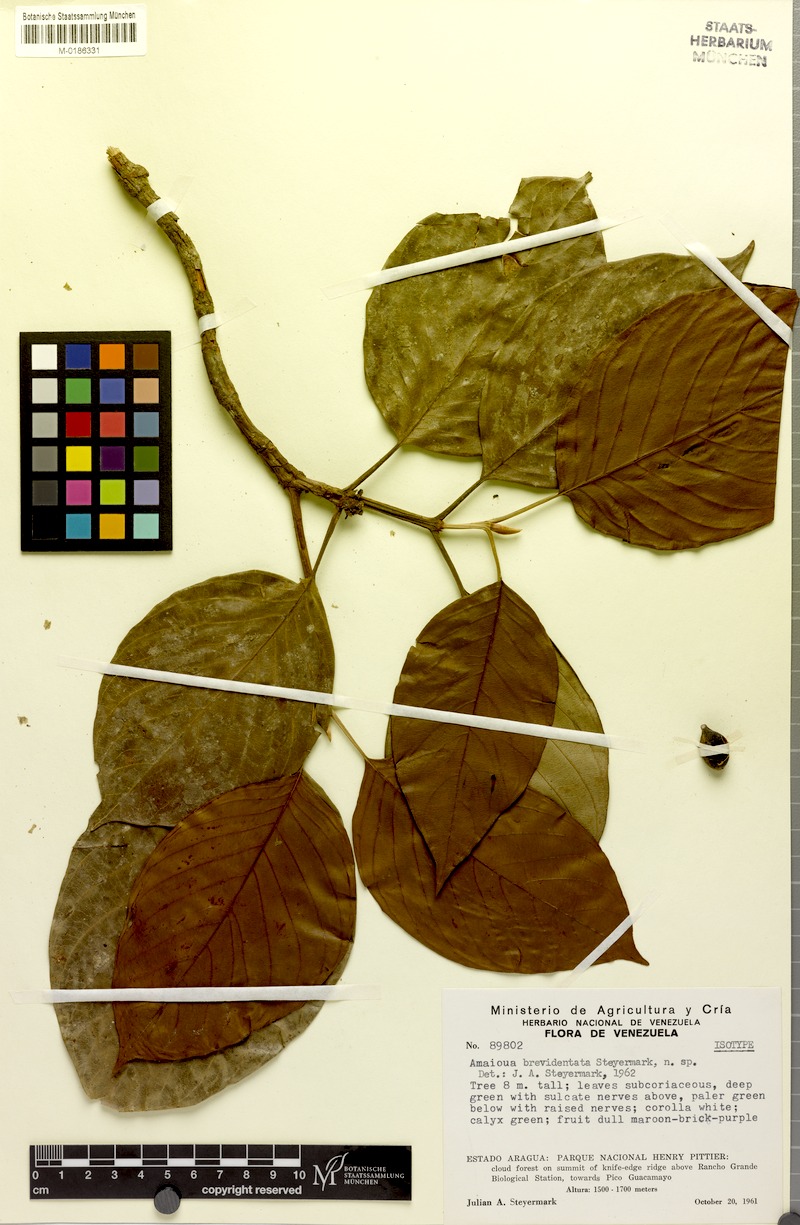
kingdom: Plantae
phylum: Tracheophyta
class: Magnoliopsida
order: Gentianales
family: Rubiaceae
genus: Amaioua
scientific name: Amaioua brevidentata
